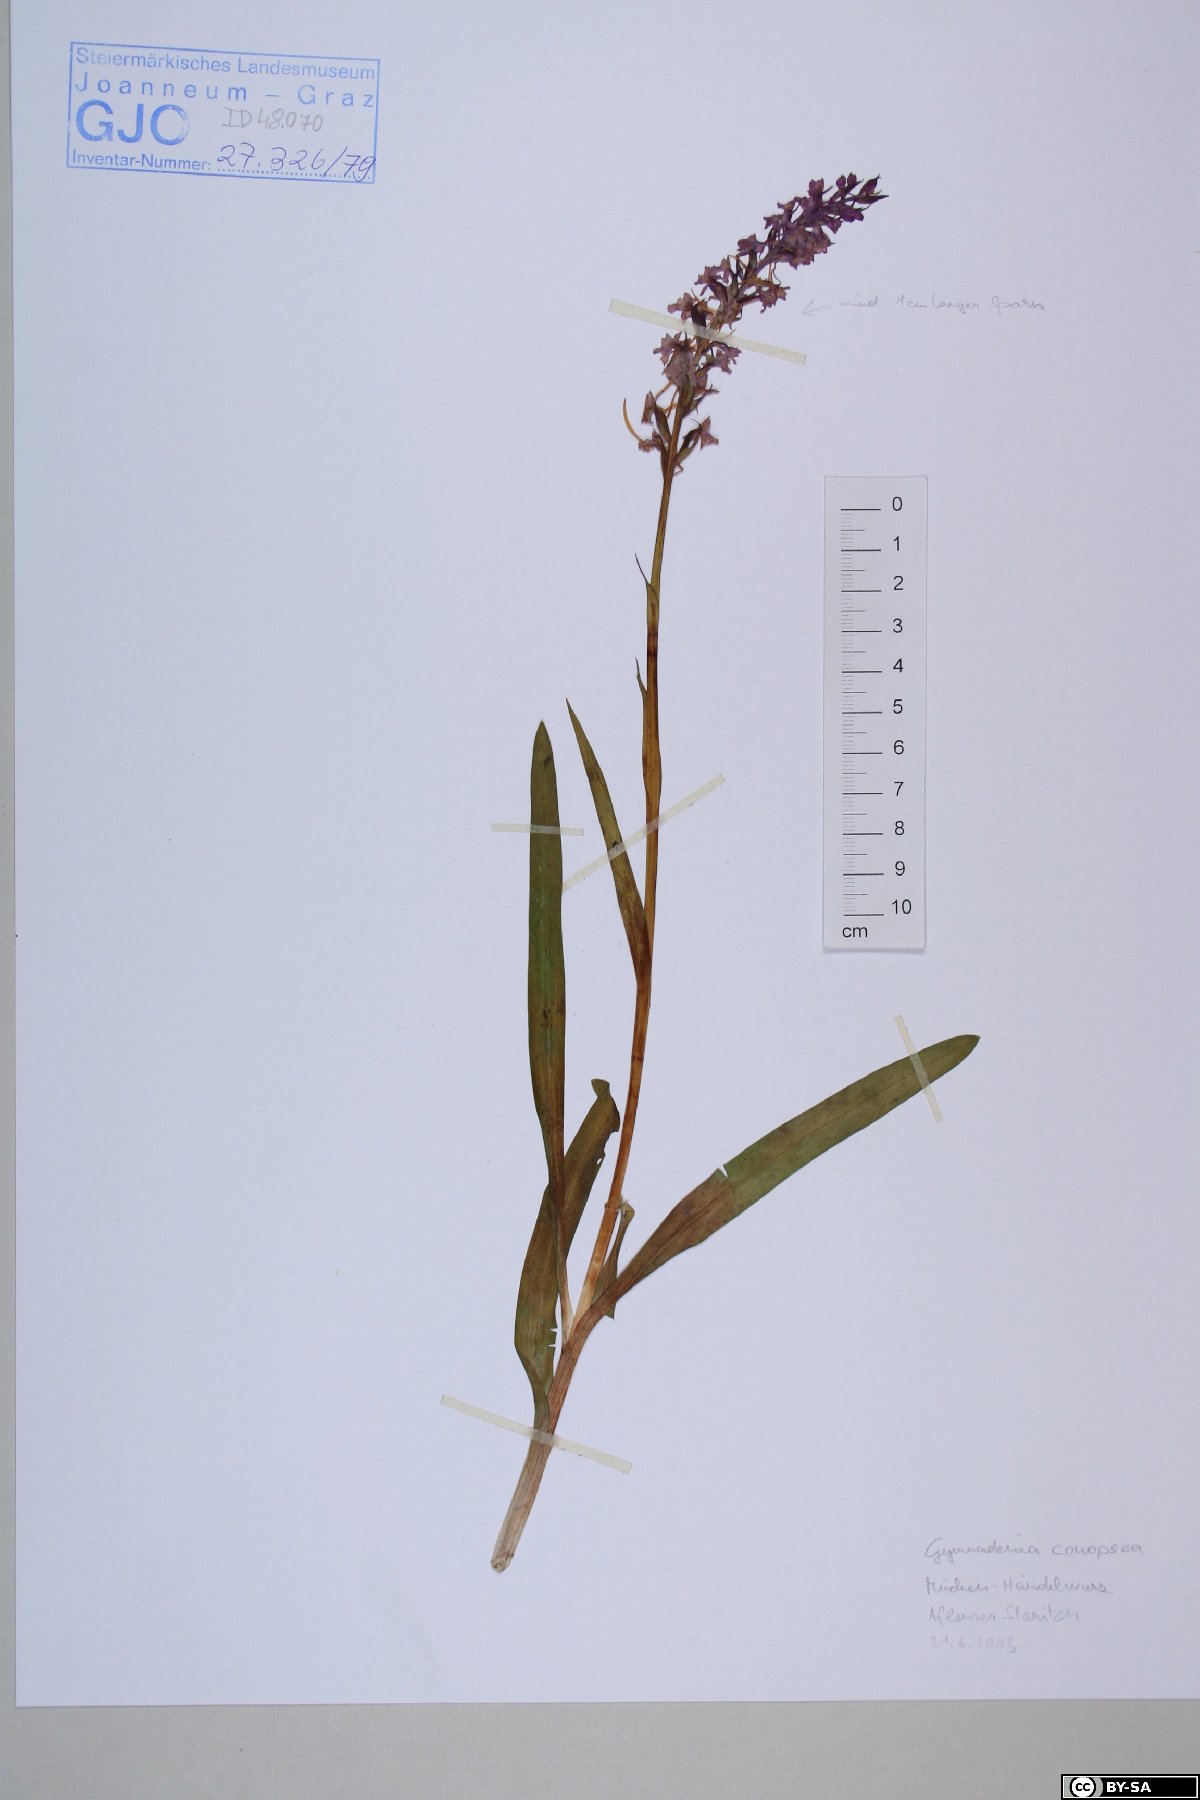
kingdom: Plantae
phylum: Tracheophyta
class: Liliopsida
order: Asparagales
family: Orchidaceae
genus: Gymnadenia
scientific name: Gymnadenia conopsea
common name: Fragrant orchid
